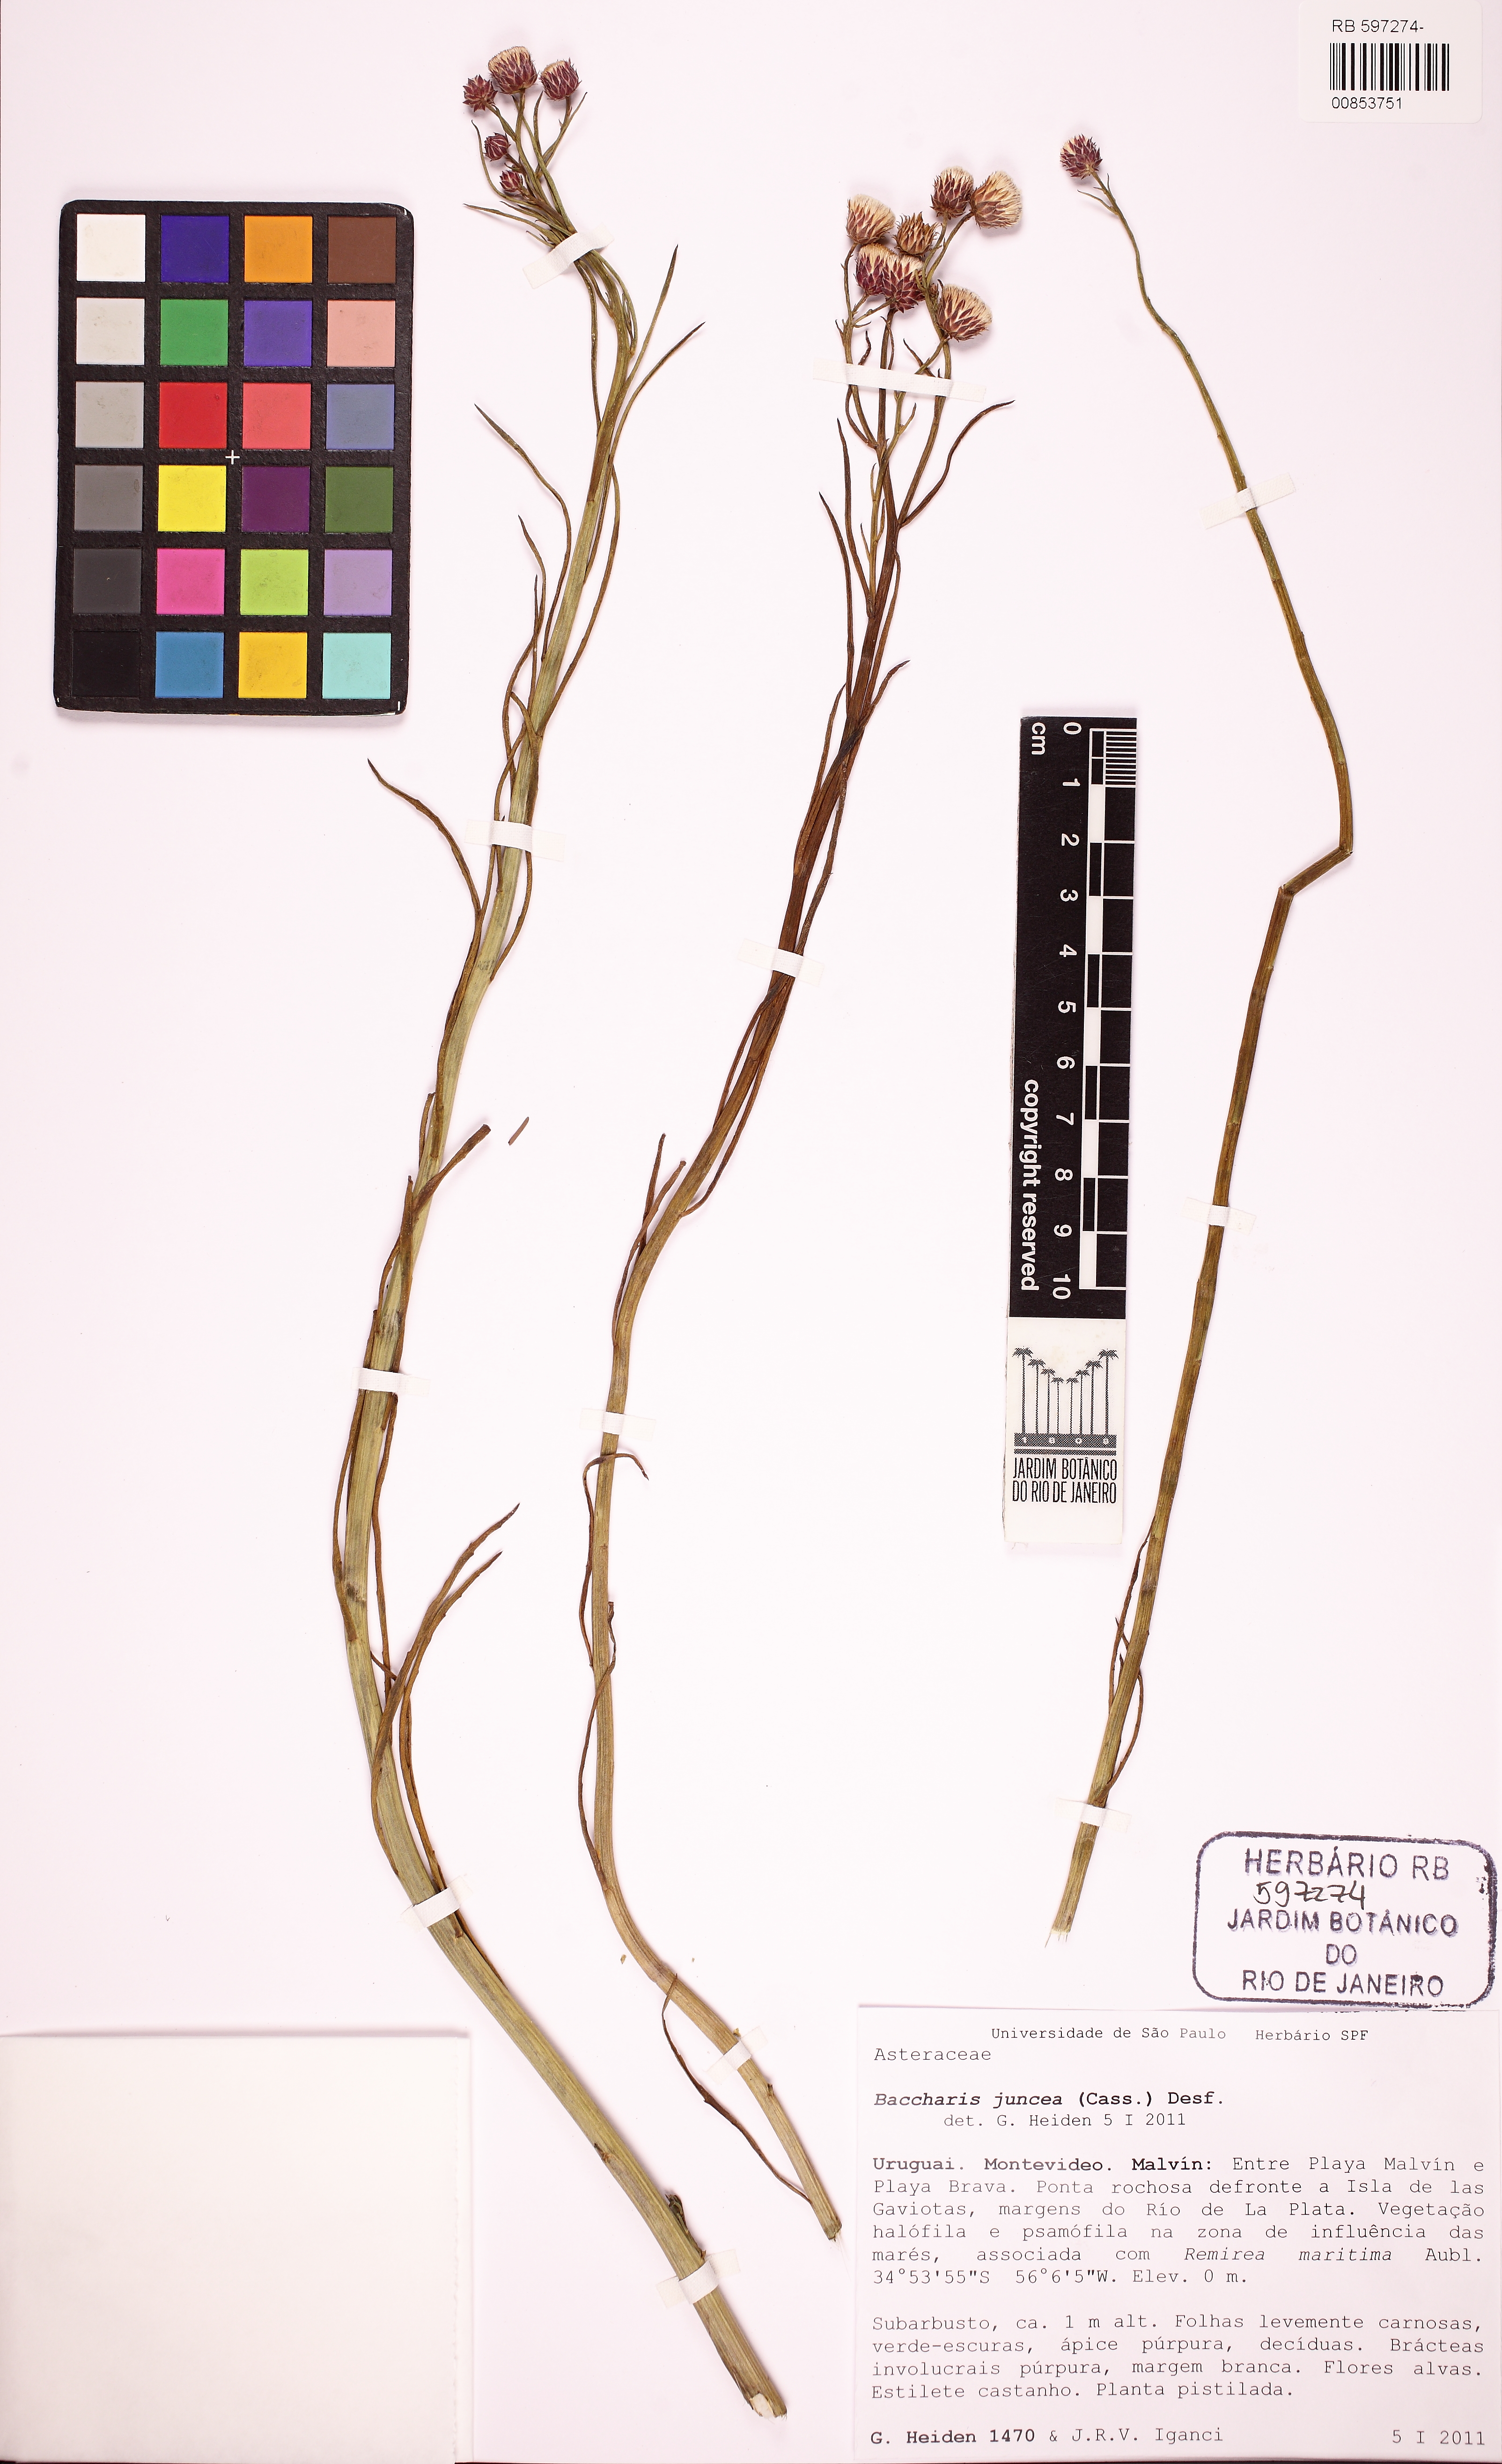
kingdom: Plantae
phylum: Tracheophyta
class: Magnoliopsida
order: Asterales
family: Asteraceae
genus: Baccharis
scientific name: Baccharis juncea
